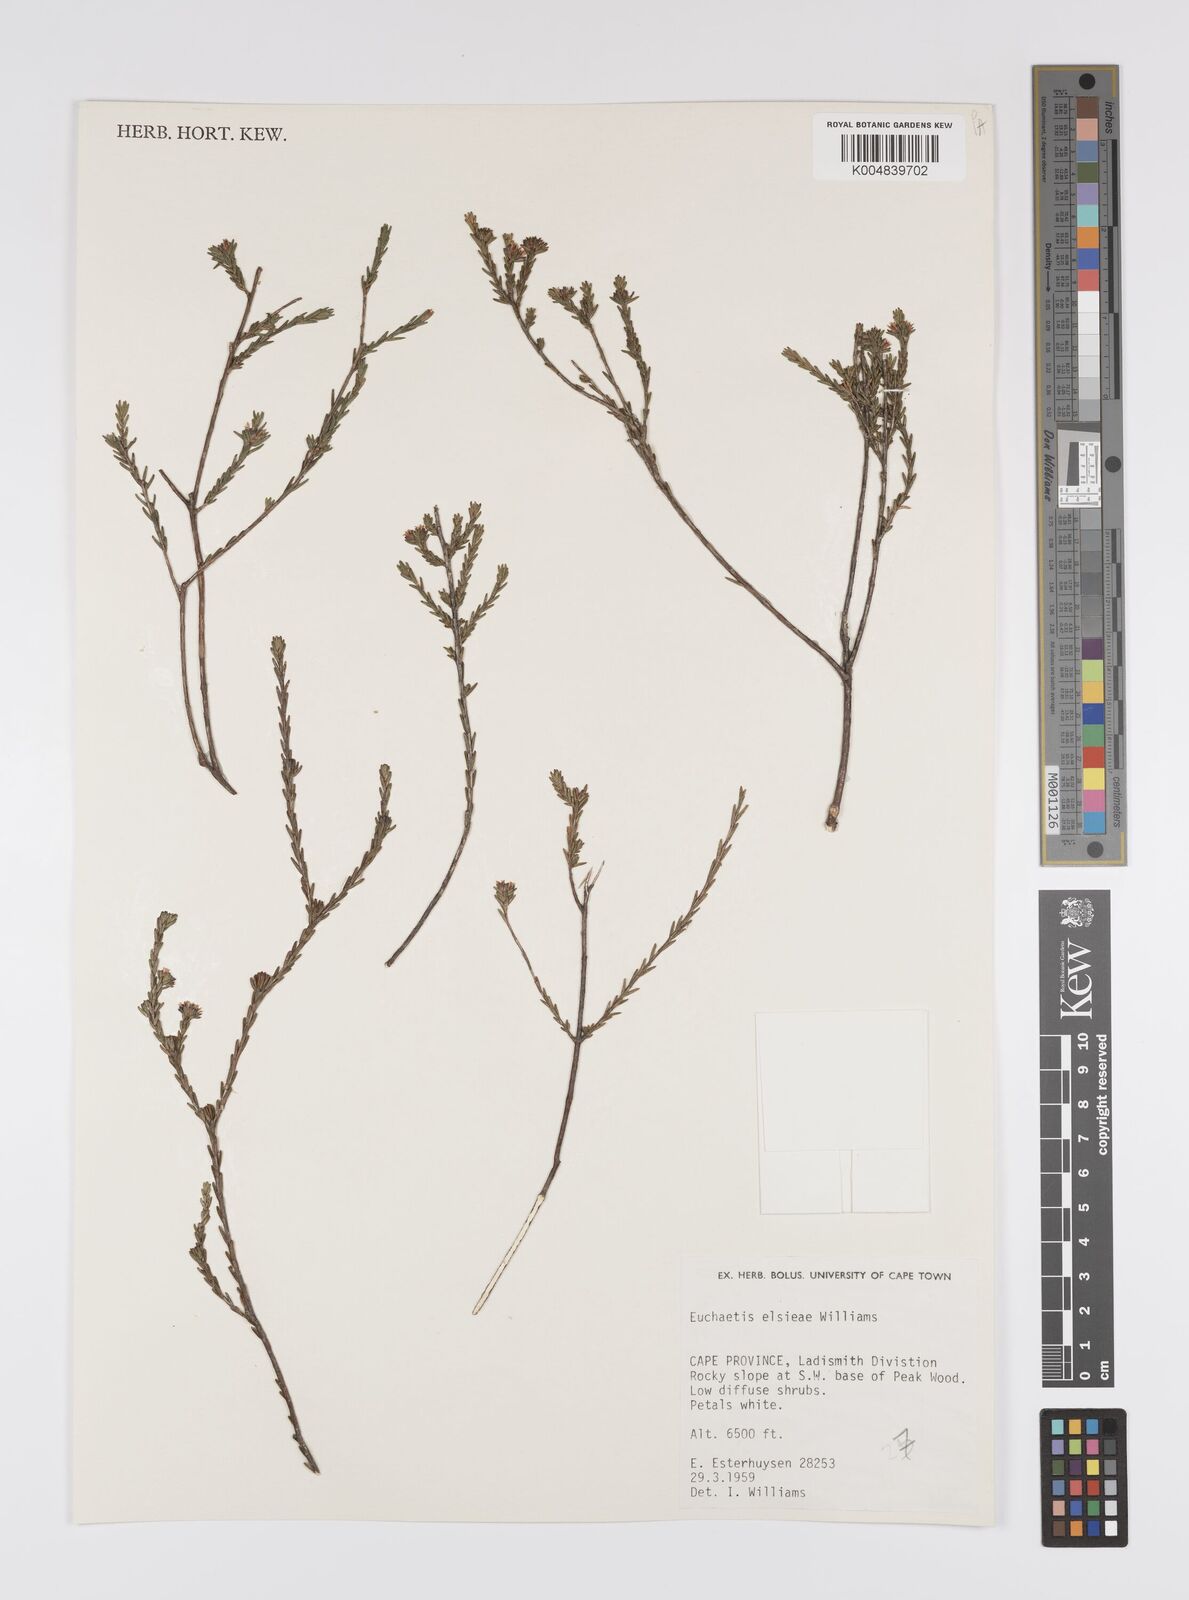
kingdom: Plantae
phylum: Tracheophyta
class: Magnoliopsida
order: Sapindales
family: Rutaceae
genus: Euchaetis
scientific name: Euchaetis elsieae
